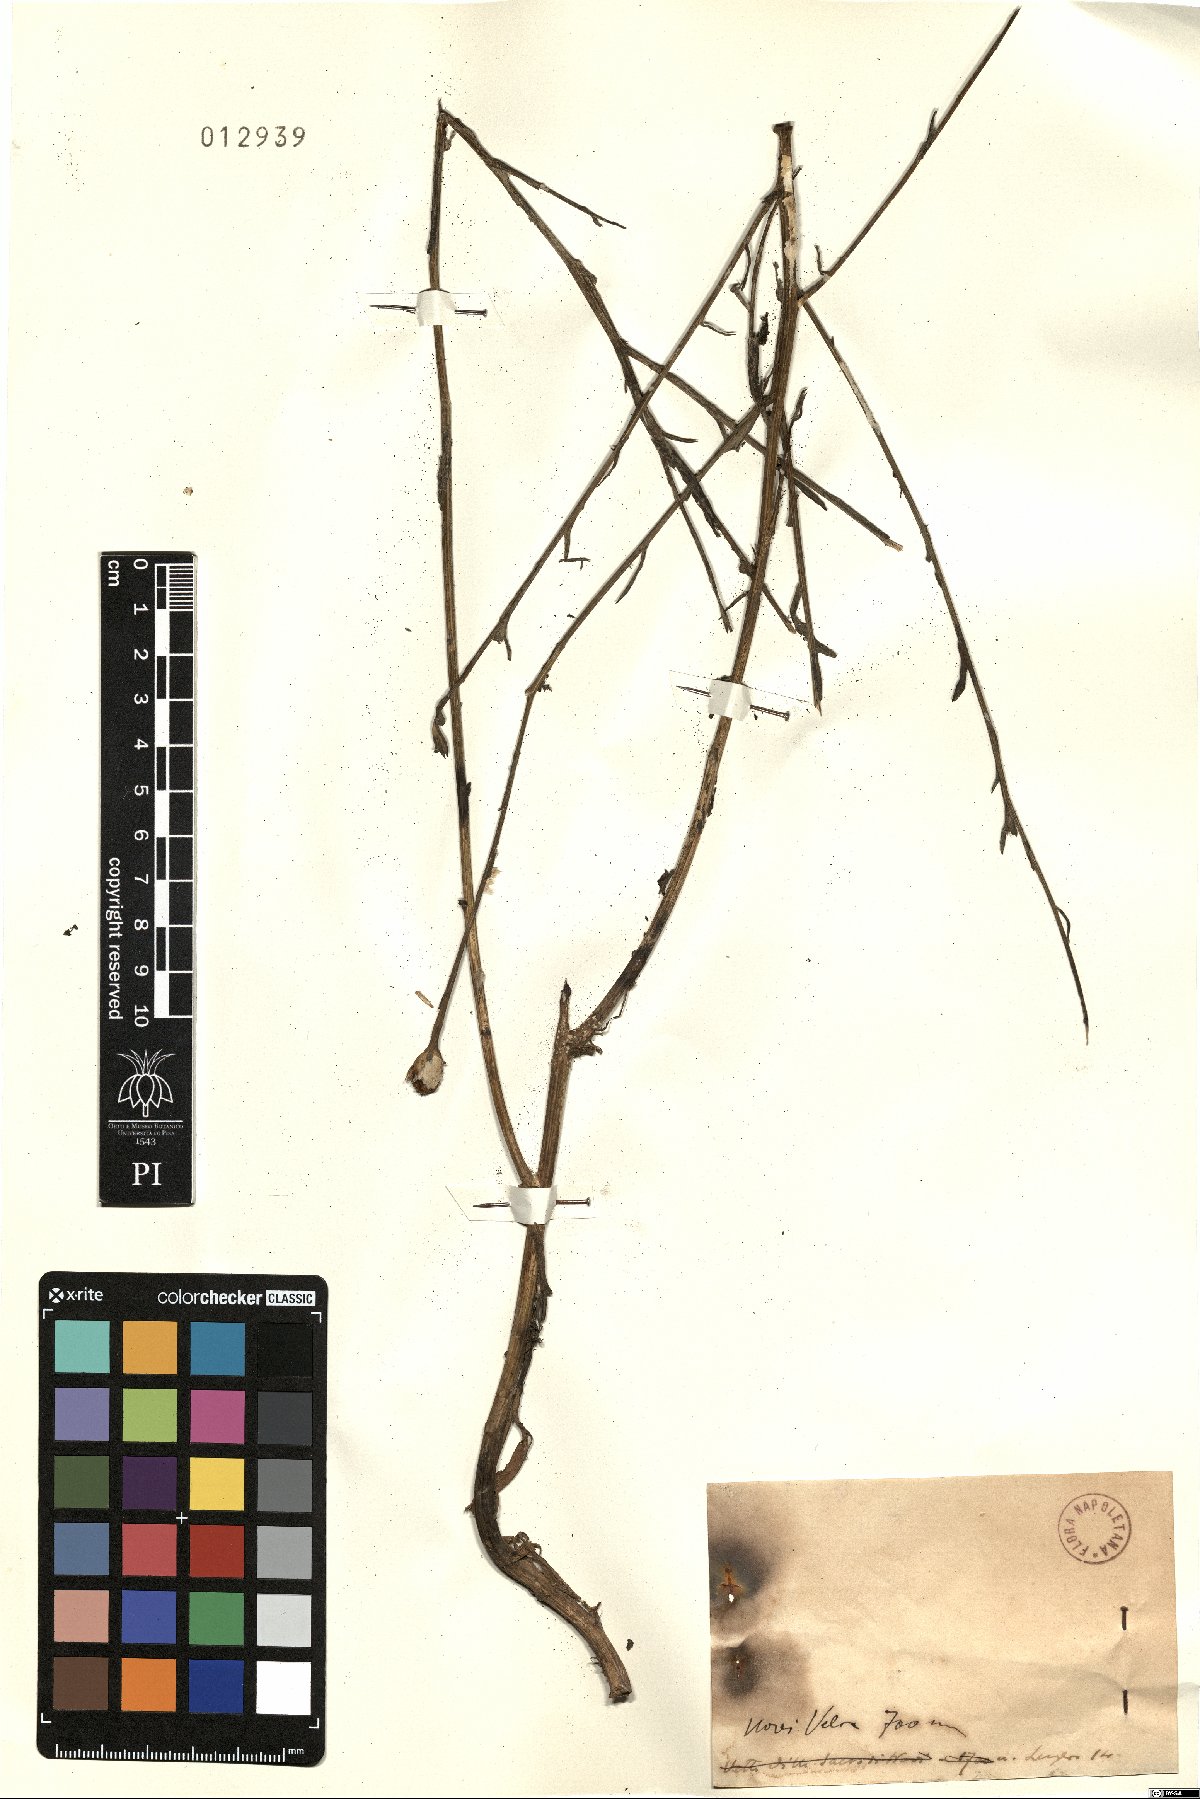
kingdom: Plantae
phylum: Tracheophyta
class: Magnoliopsida
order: Asterales
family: Asteraceae
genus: Centaurea
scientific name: Centaurea
